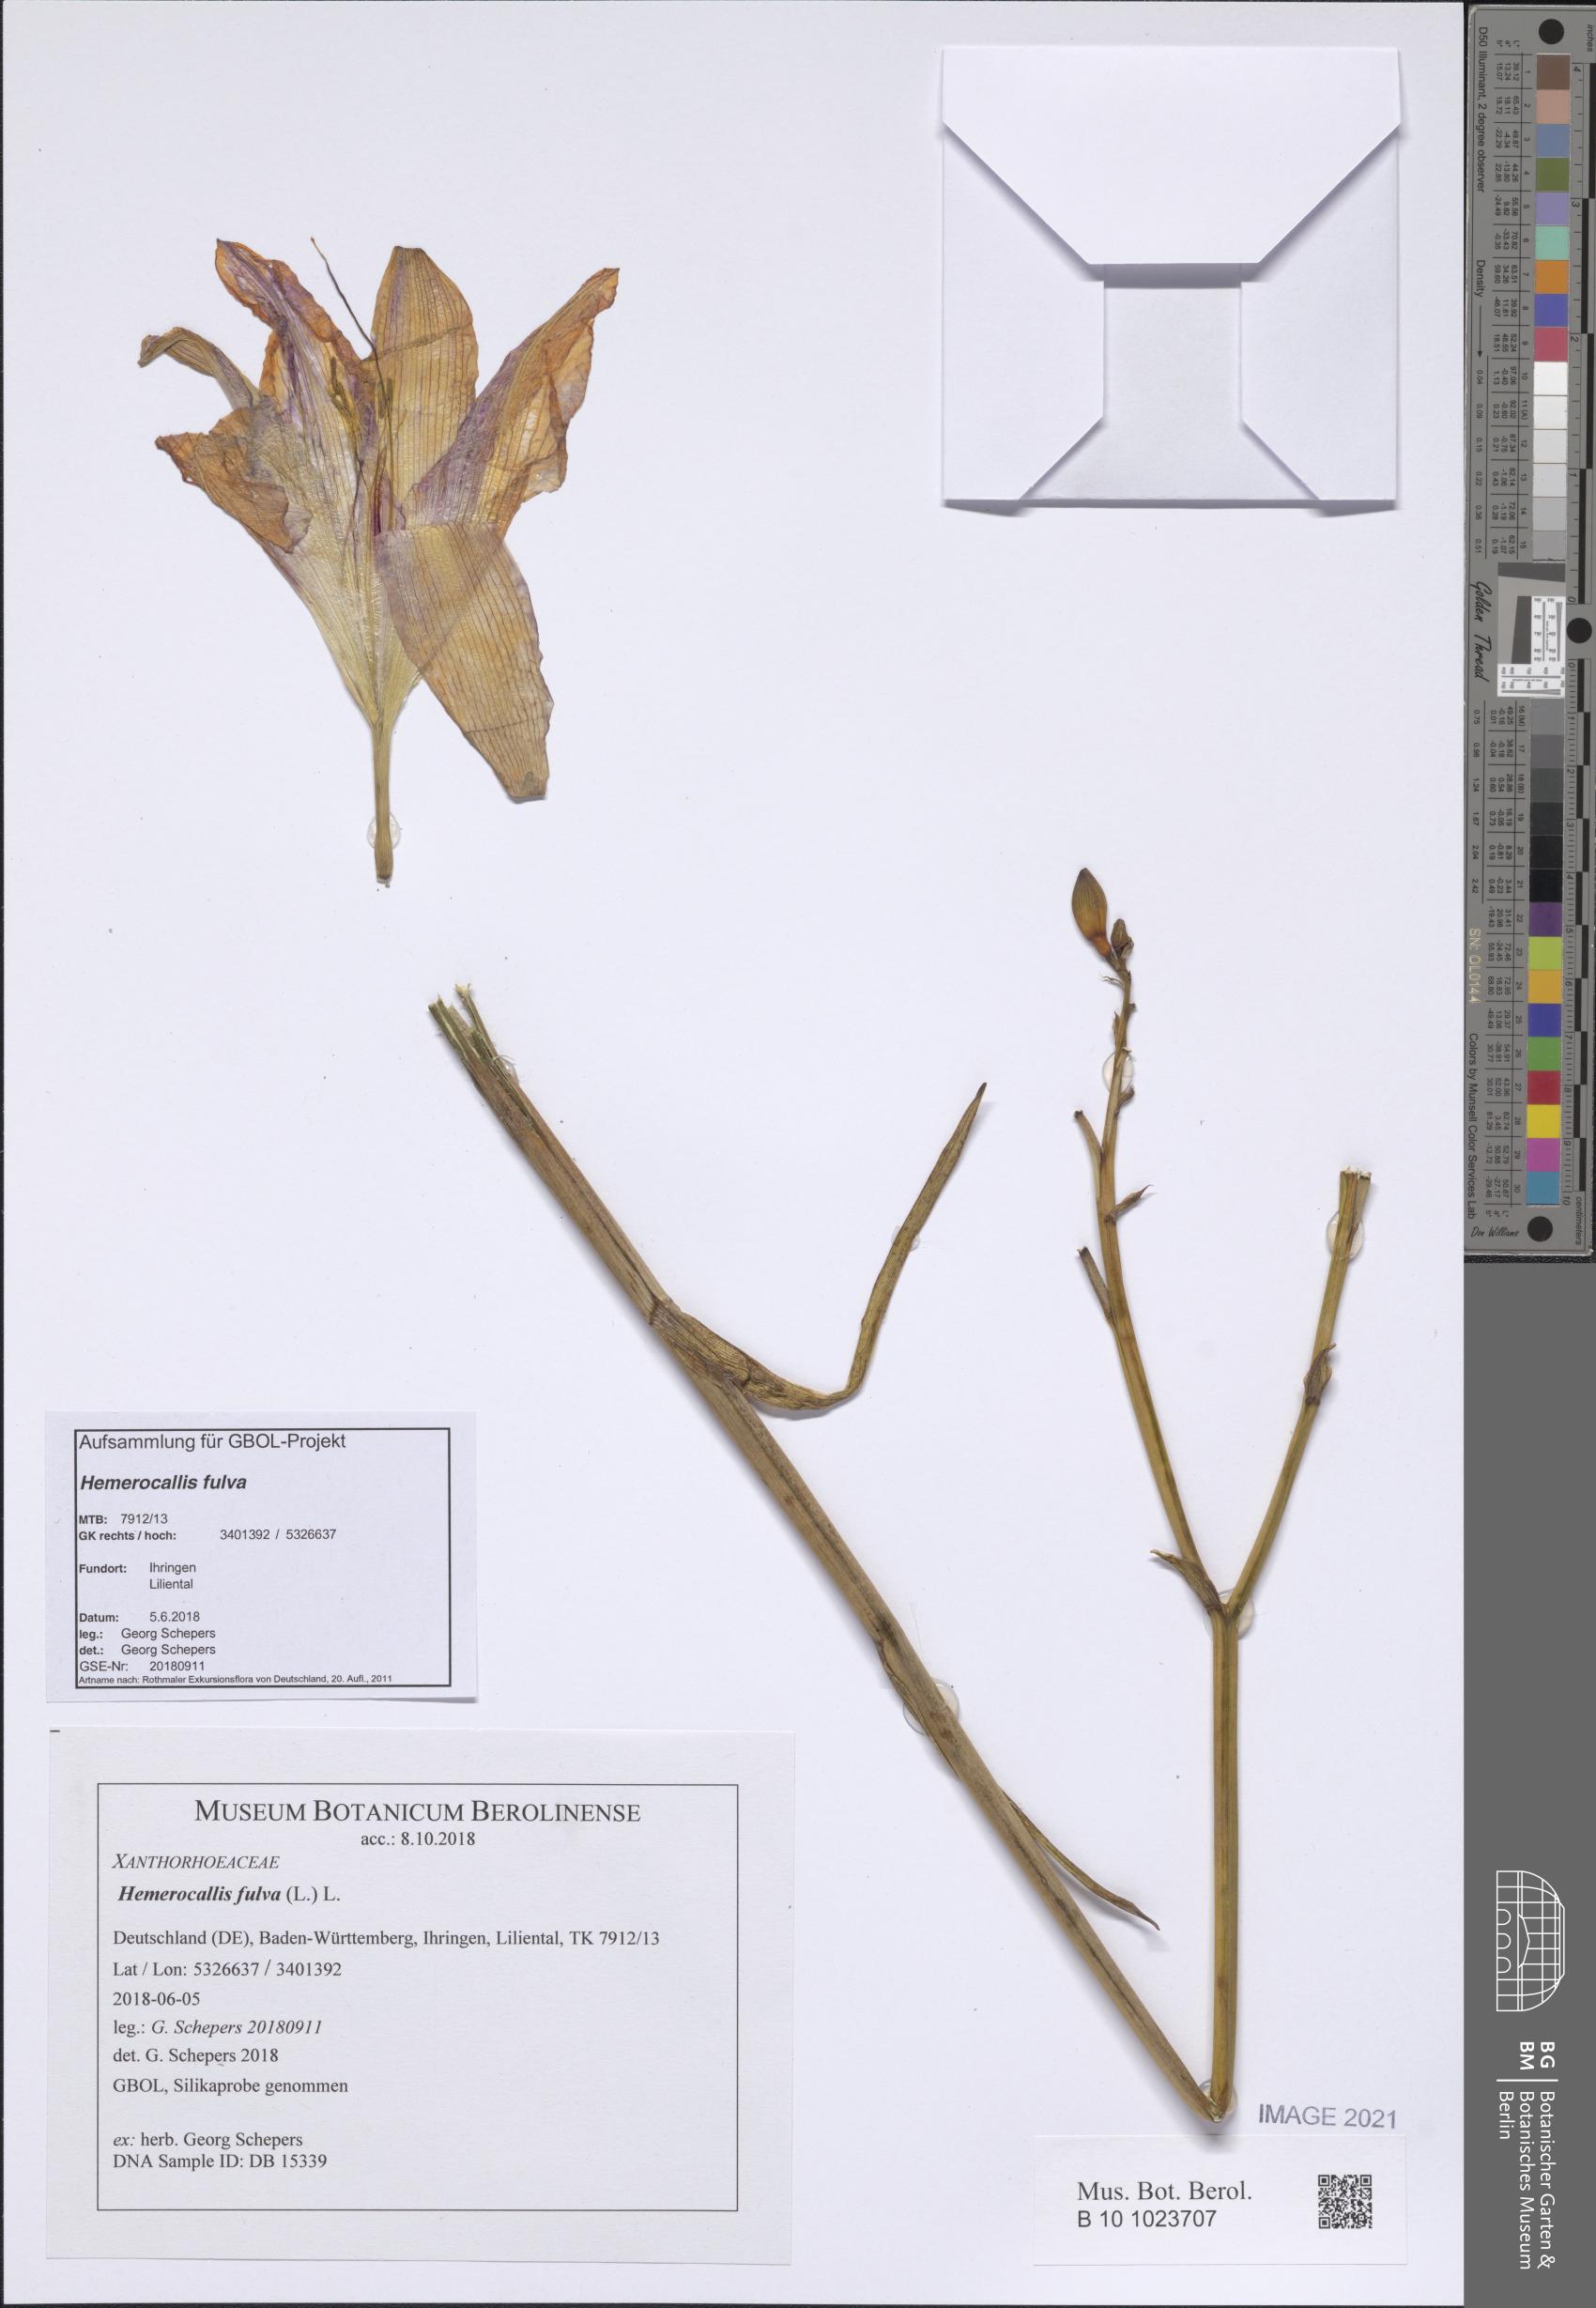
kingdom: Plantae
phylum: Tracheophyta
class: Liliopsida
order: Asparagales
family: Asphodelaceae
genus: Hemerocallis
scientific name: Hemerocallis fulva
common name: Orange day-lily
